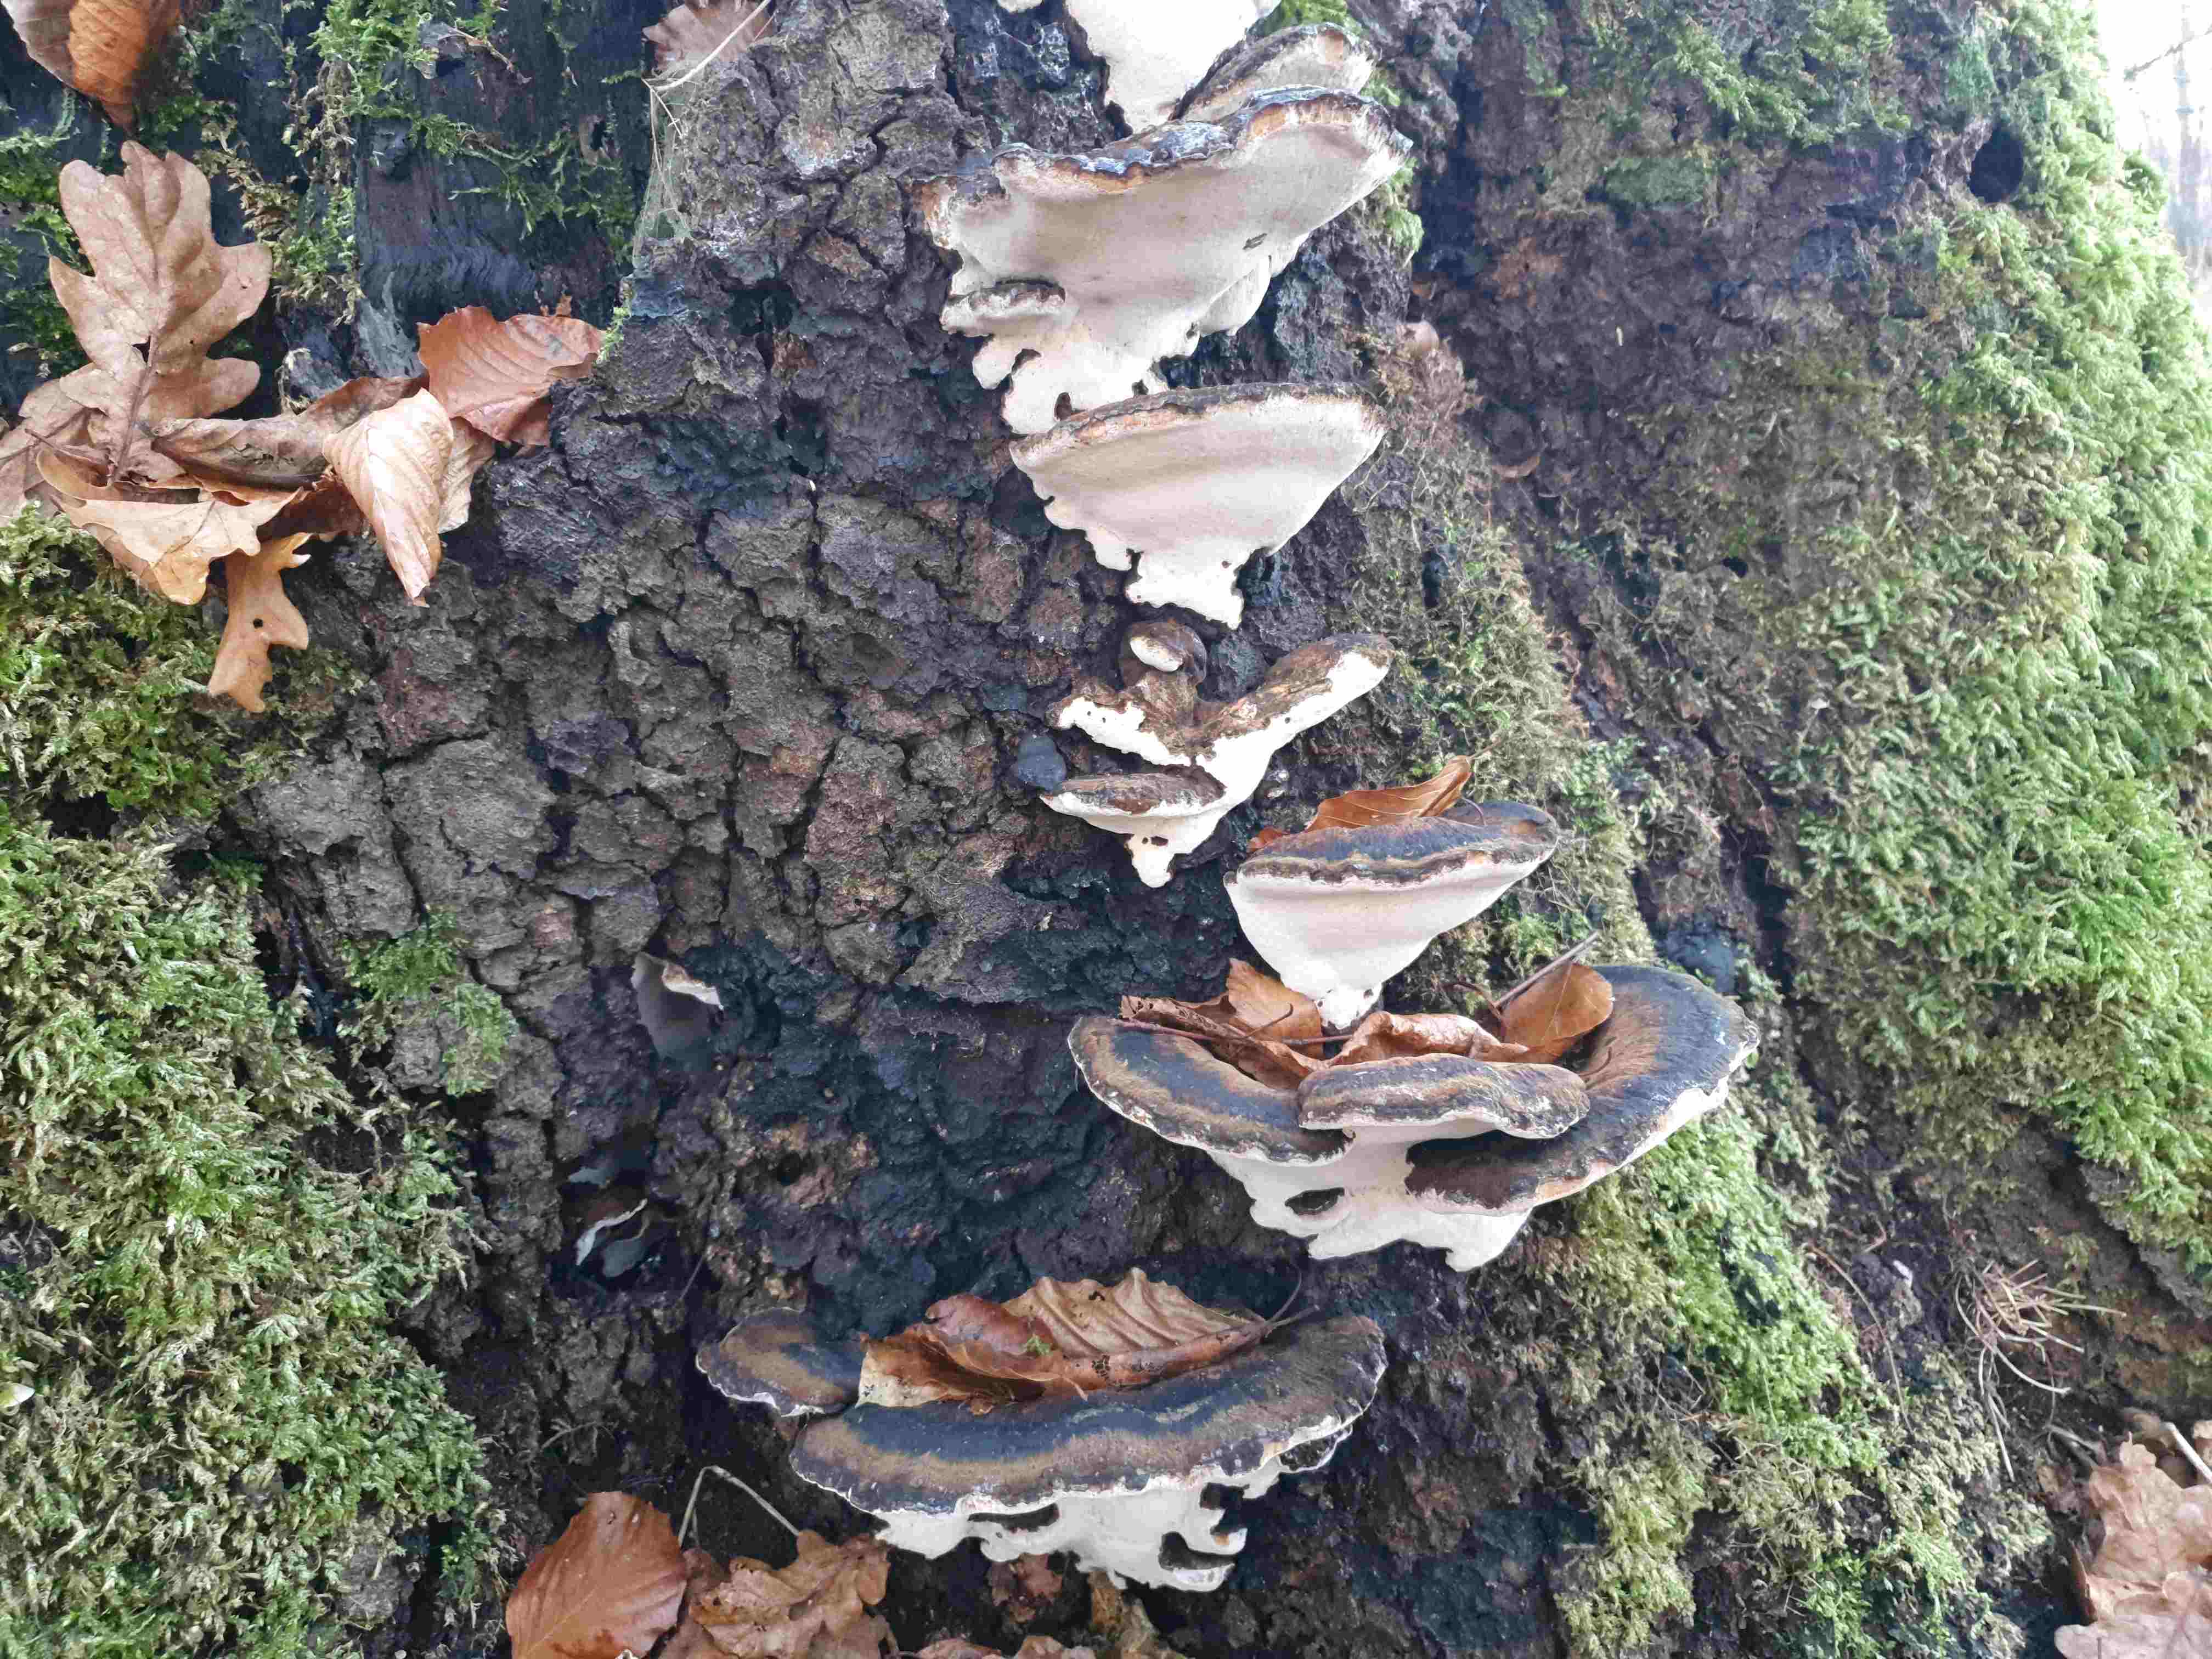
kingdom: Fungi
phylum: Basidiomycota
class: Agaricomycetes
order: Polyporales
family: Ischnodermataceae
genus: Ischnoderma
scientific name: Ischnoderma resinosum
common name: løv-tjæreporesvamp
